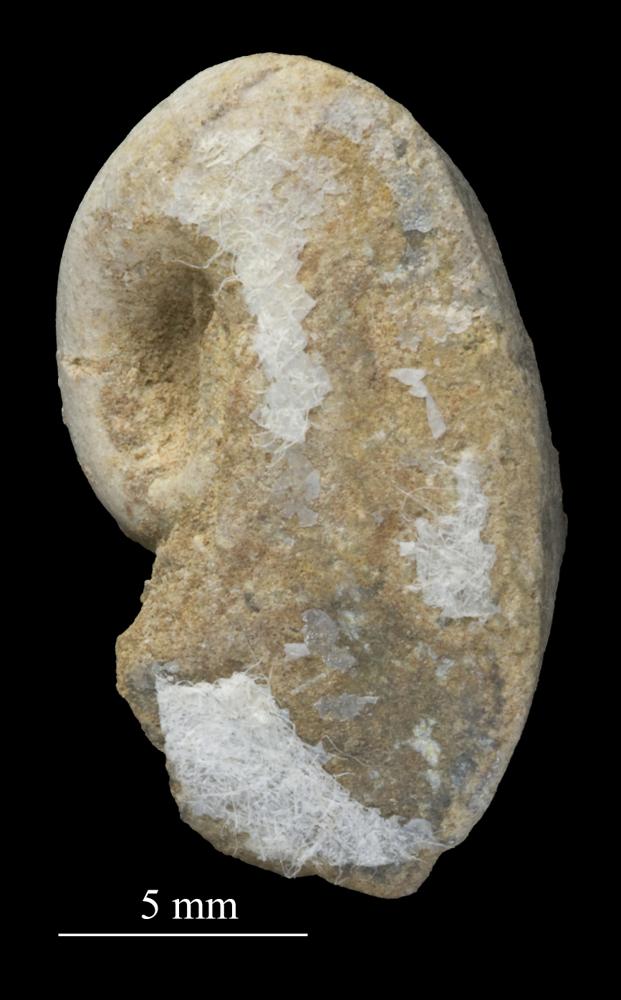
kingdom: Animalia
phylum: Mollusca
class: Gastropoda
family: Bellerophontidae
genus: Bellerophon
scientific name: Bellerophon
